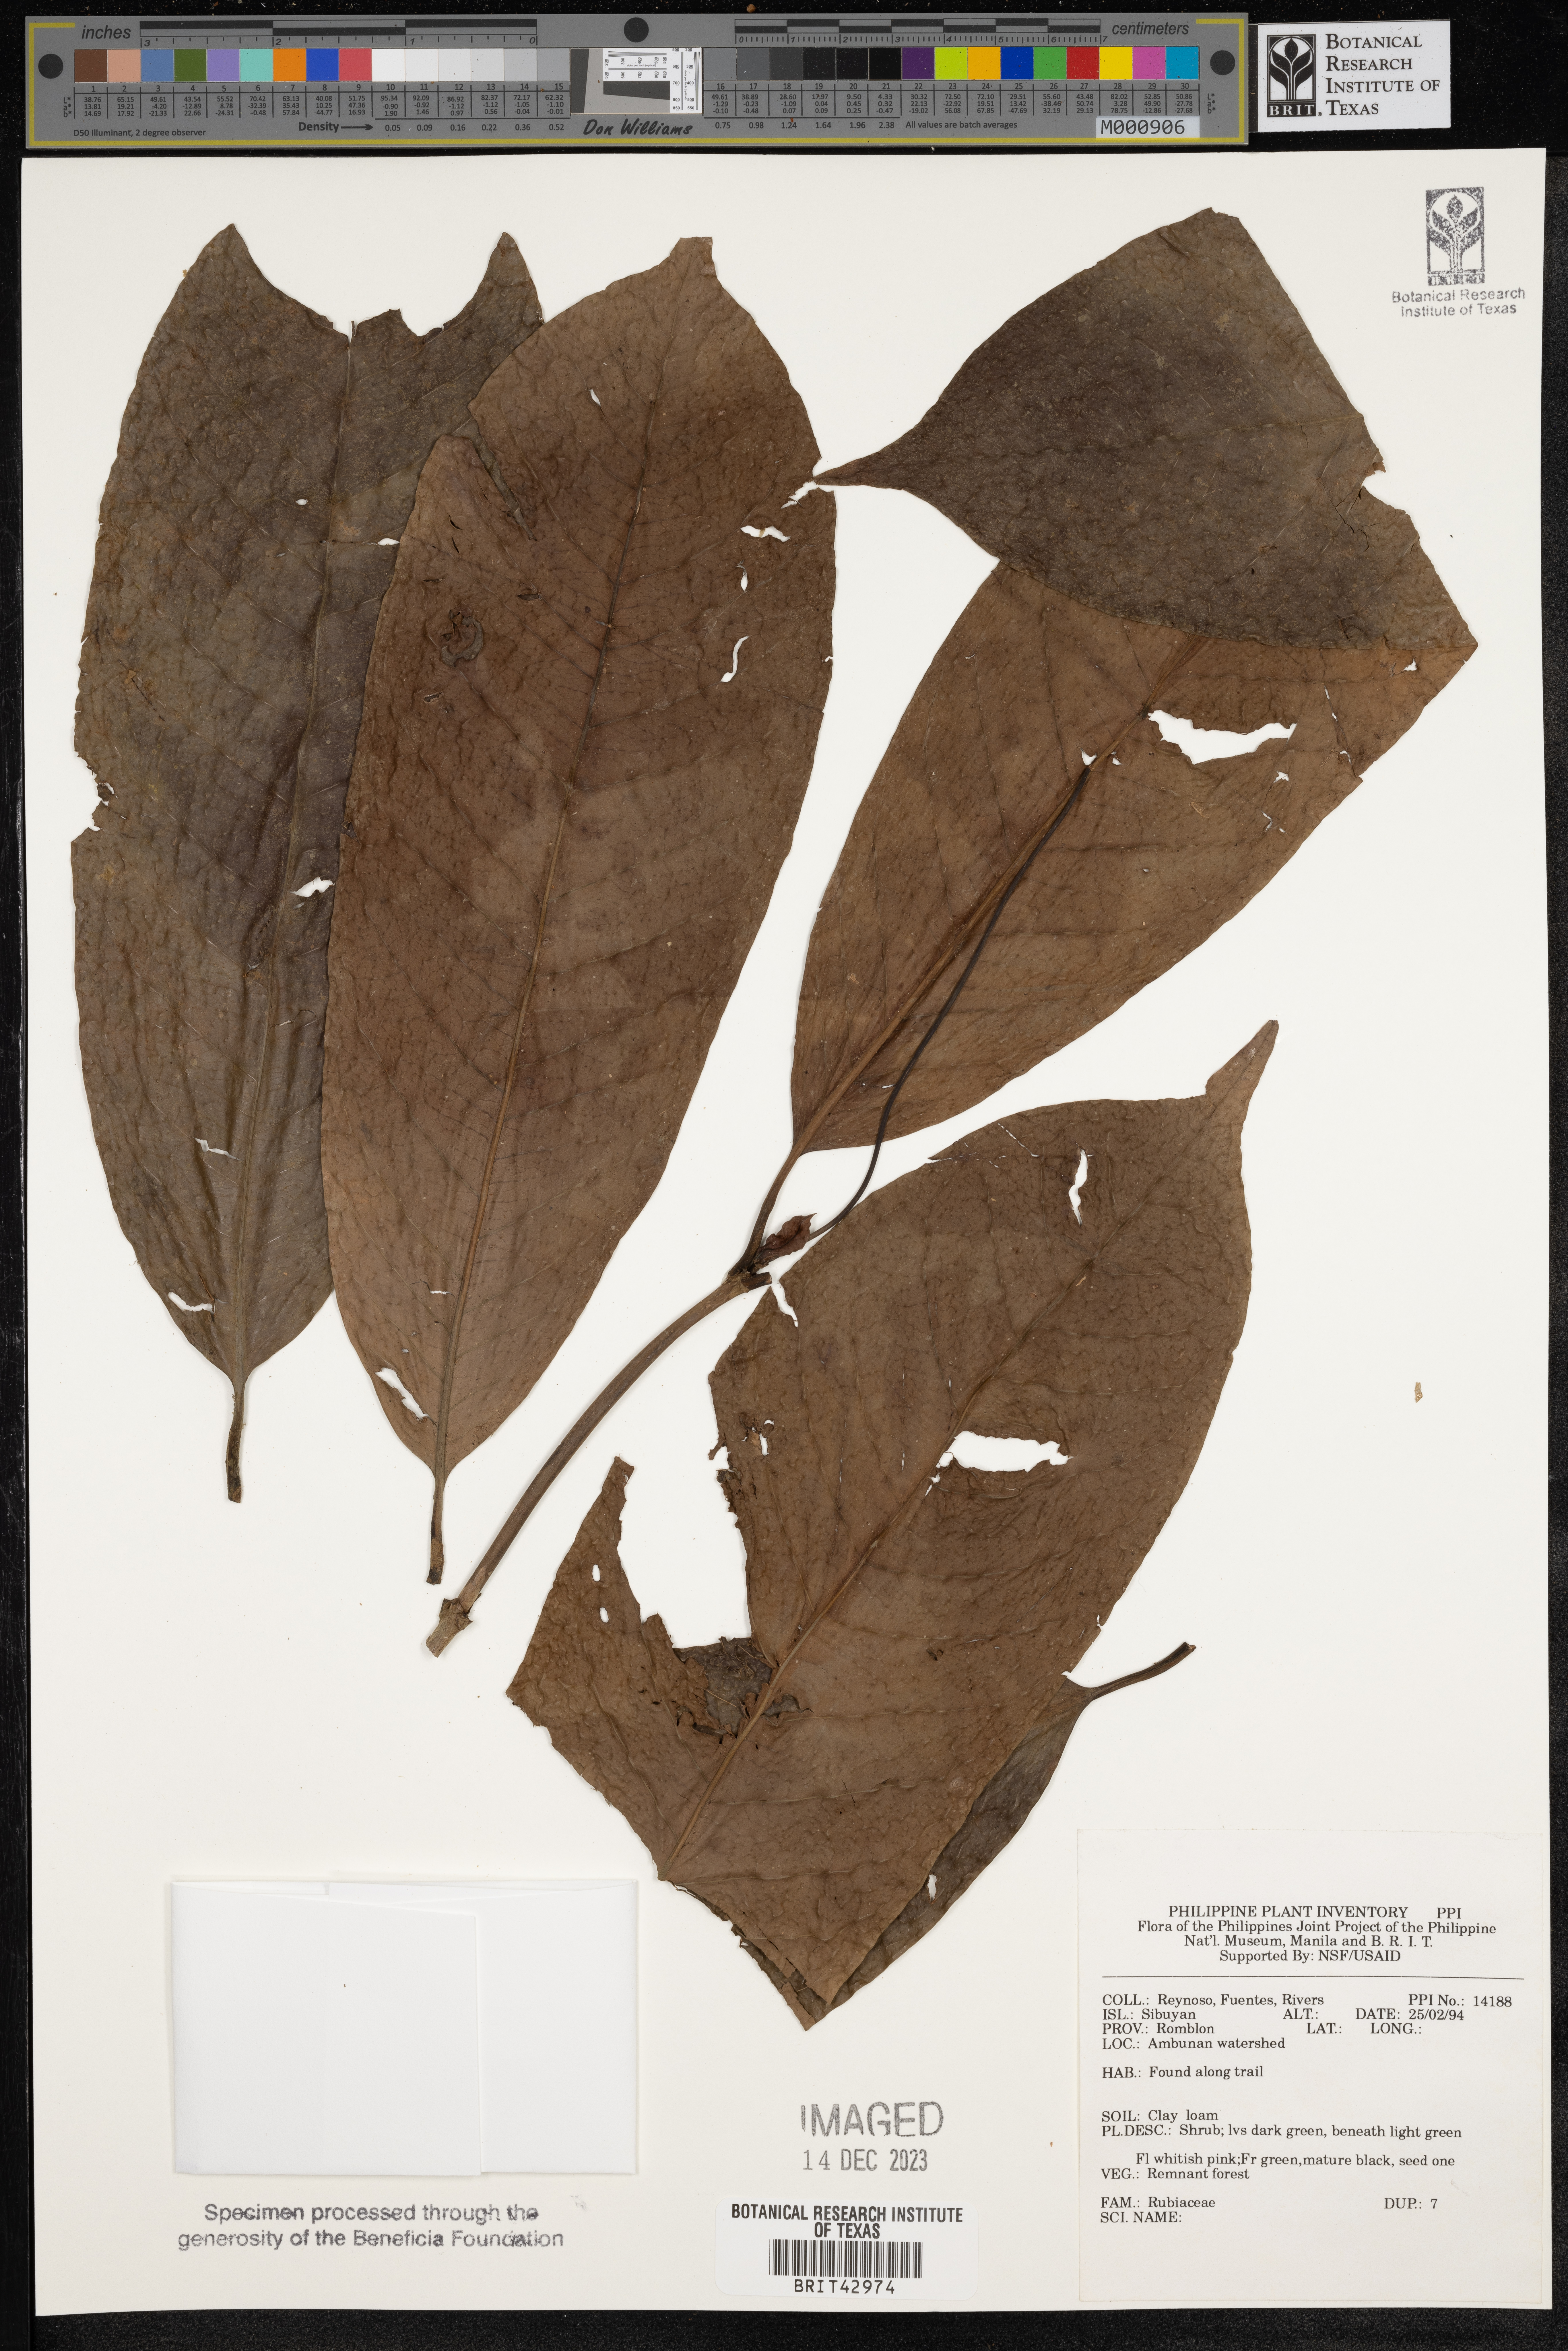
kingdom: Plantae
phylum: Tracheophyta
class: Magnoliopsida
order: Gentianales
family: Rubiaceae
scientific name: Rubiaceae
